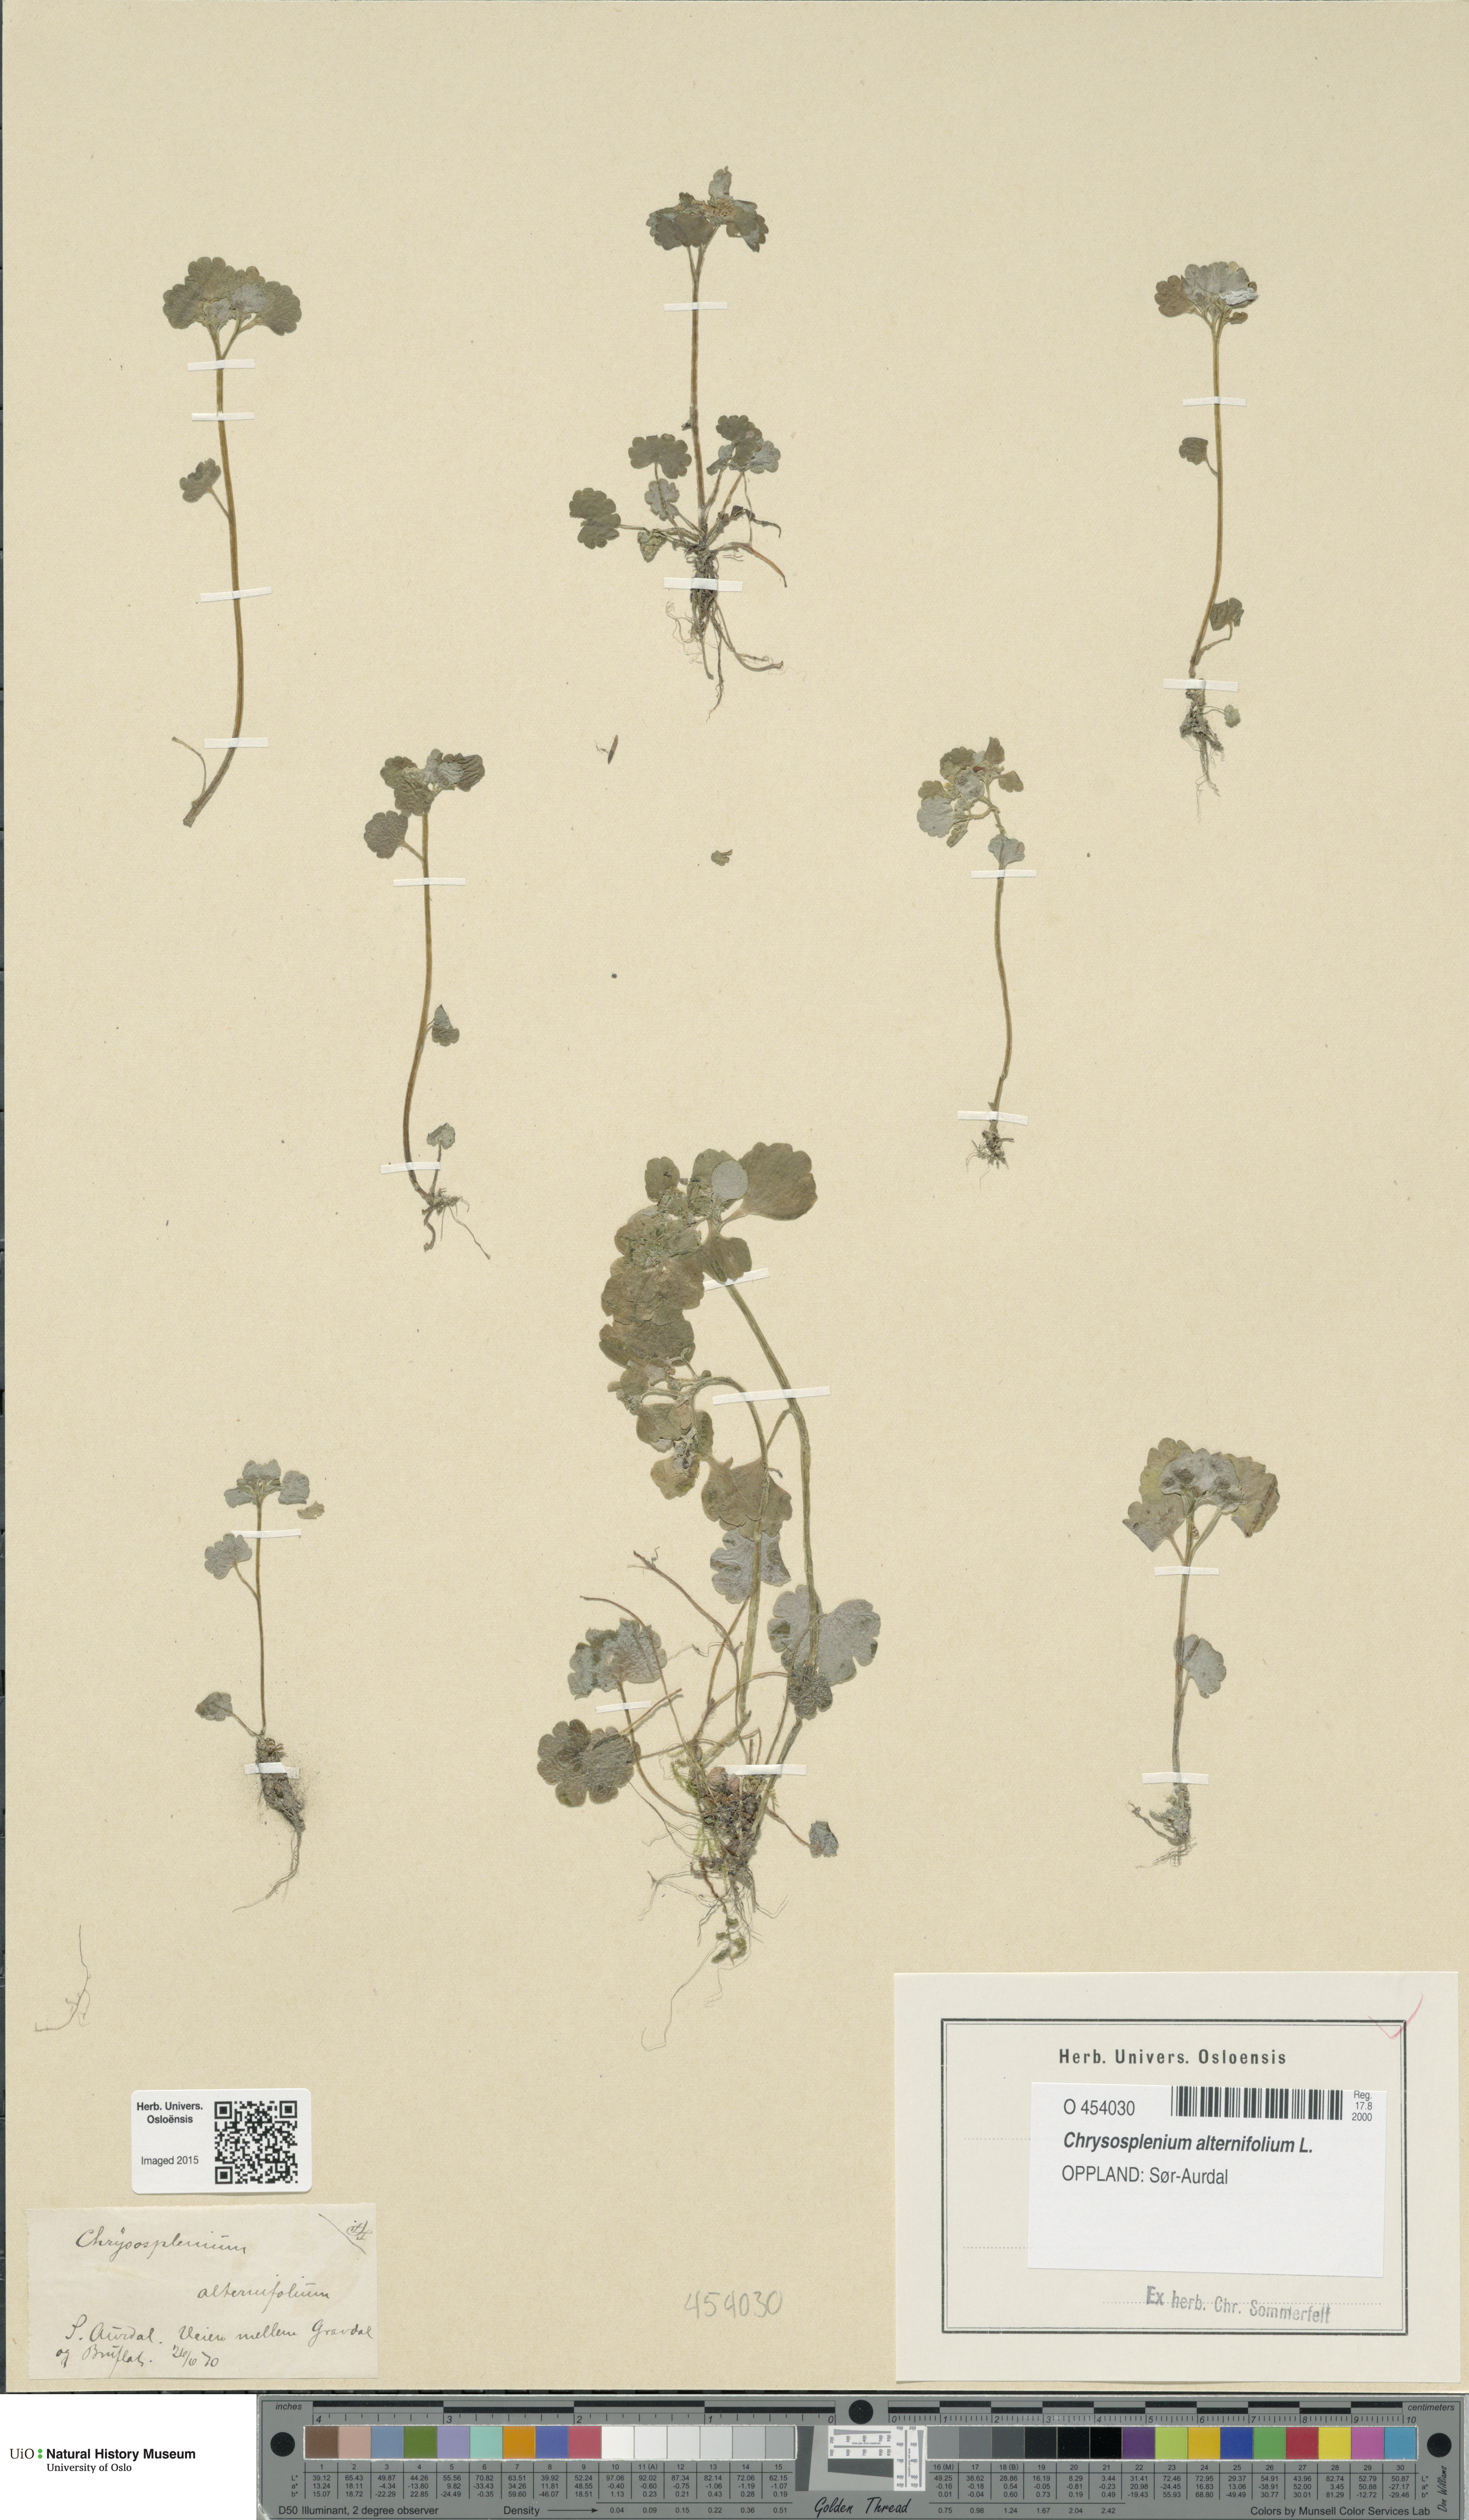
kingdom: Plantae
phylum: Tracheophyta
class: Magnoliopsida
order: Saxifragales
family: Saxifragaceae
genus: Chrysosplenium
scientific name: Chrysosplenium alternifolium
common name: Alternate-leaved golden-saxifrage
